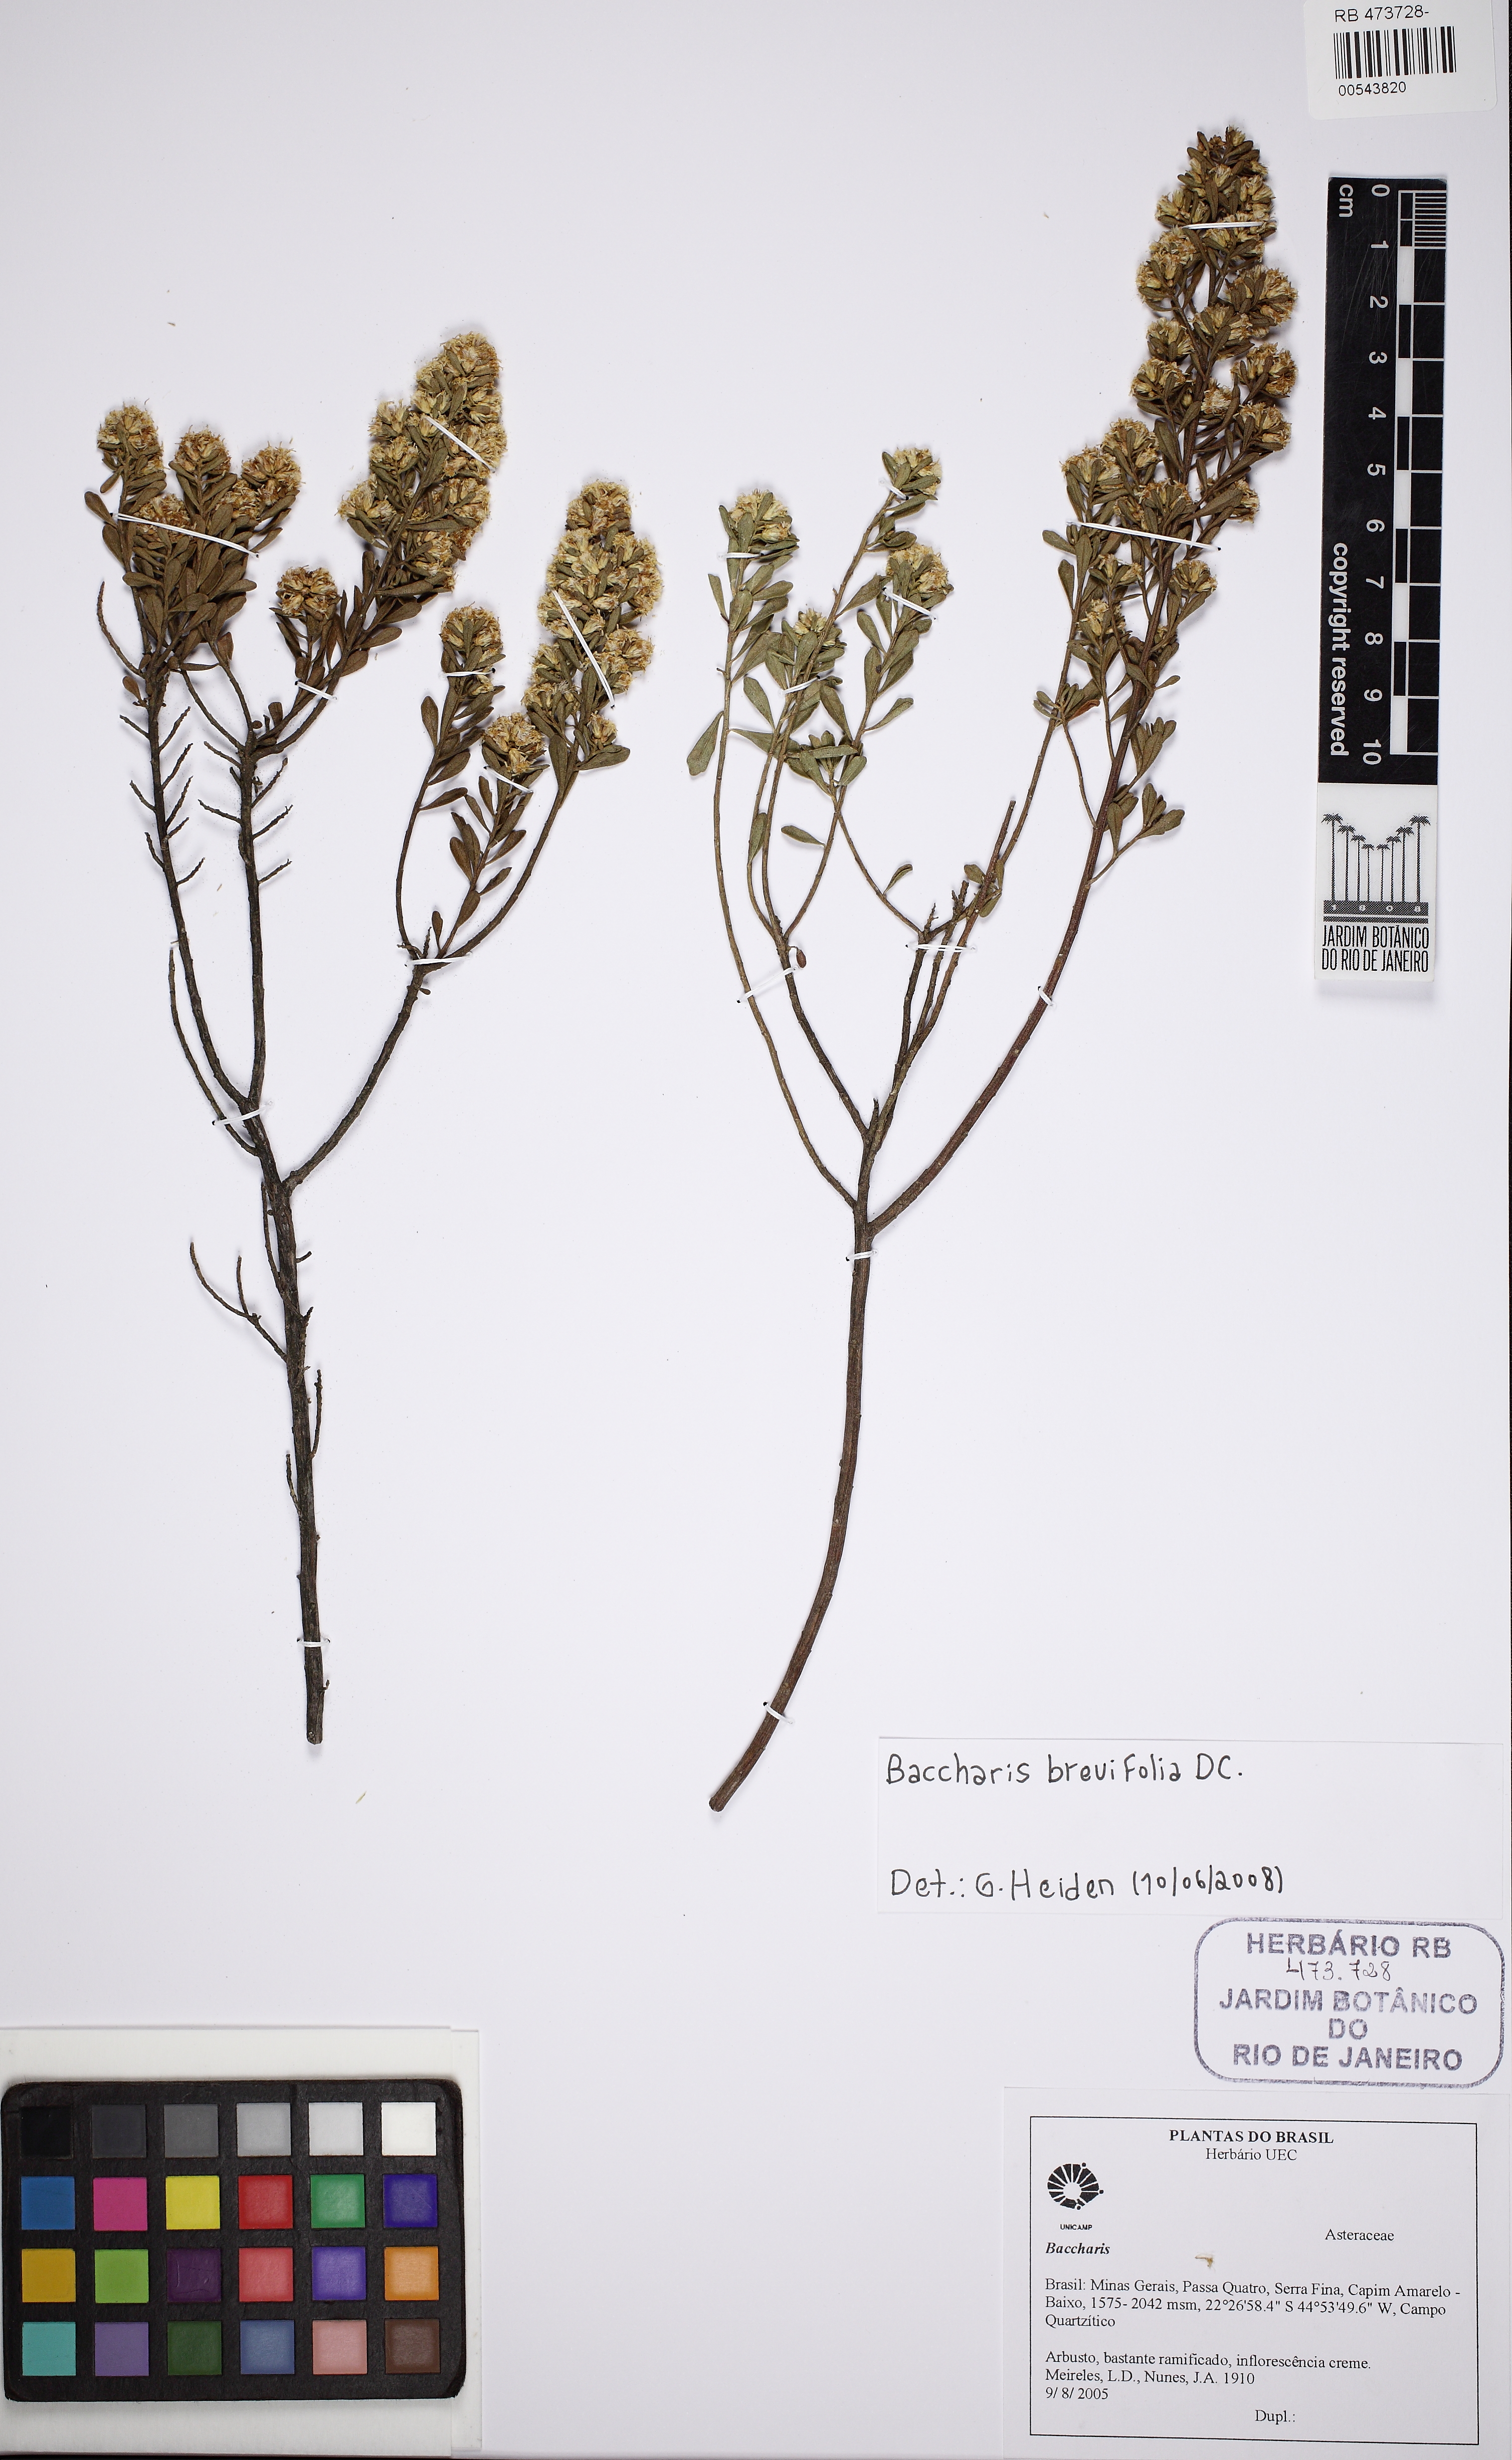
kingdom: Plantae
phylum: Tracheophyta
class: Magnoliopsida
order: Asterales
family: Asteraceae
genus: Baccharis
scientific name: Baccharis brevifolia
